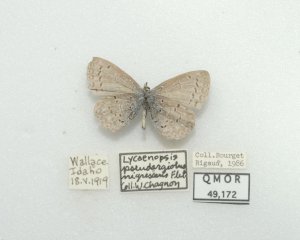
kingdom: Animalia
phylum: Arthropoda
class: Insecta
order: Lepidoptera
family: Lycaenidae
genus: Celastrina
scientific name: Celastrina ladon
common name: Echo Azure
